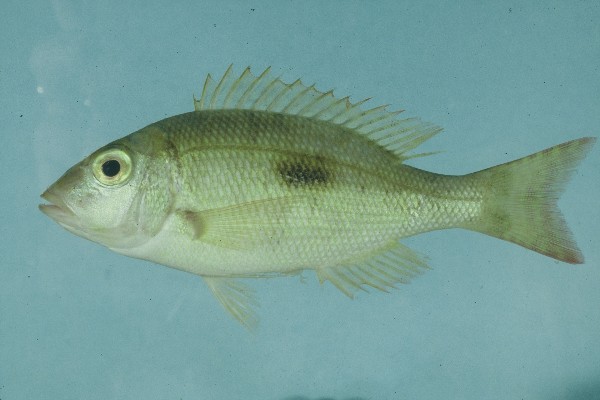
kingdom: Animalia
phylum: Chordata
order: Perciformes
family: Lethrinidae
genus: Lethrinus
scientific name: Lethrinus harak
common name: Blackspot emperor
